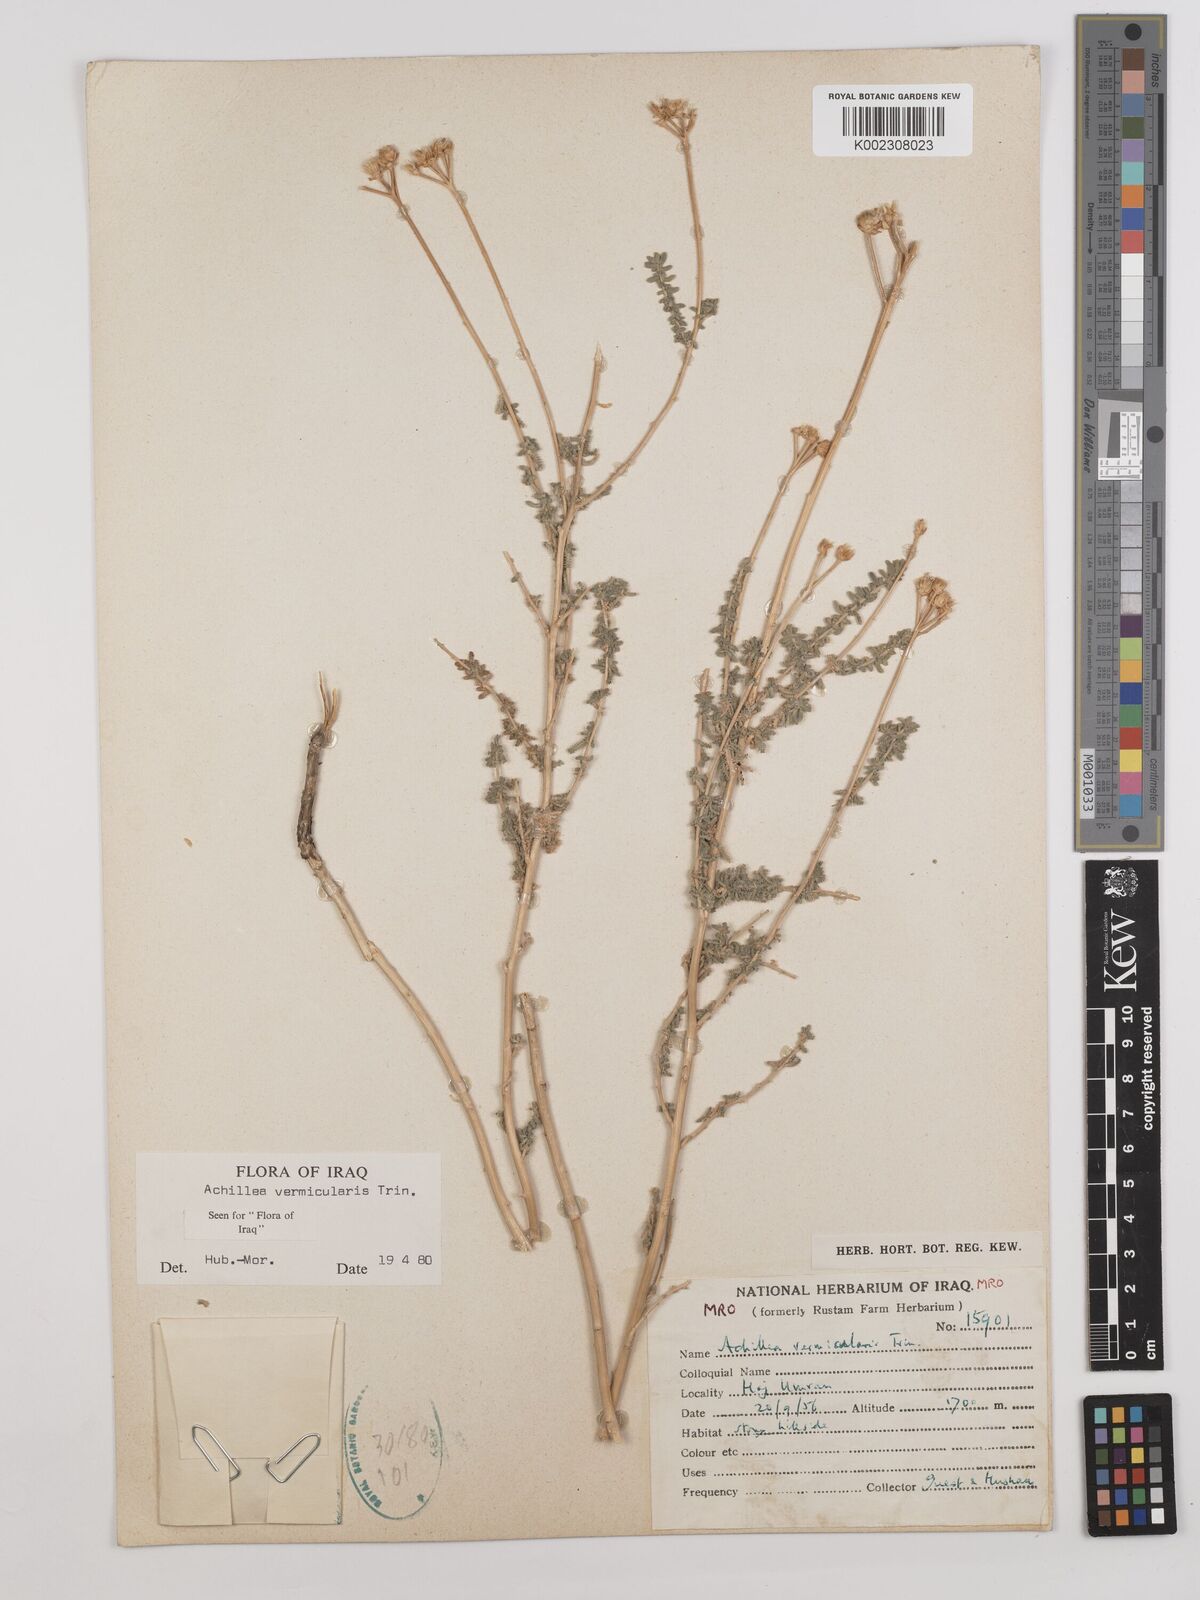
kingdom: Plantae
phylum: Tracheophyta
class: Magnoliopsida
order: Asterales
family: Asteraceae
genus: Achillea
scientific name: Achillea vermicularis
